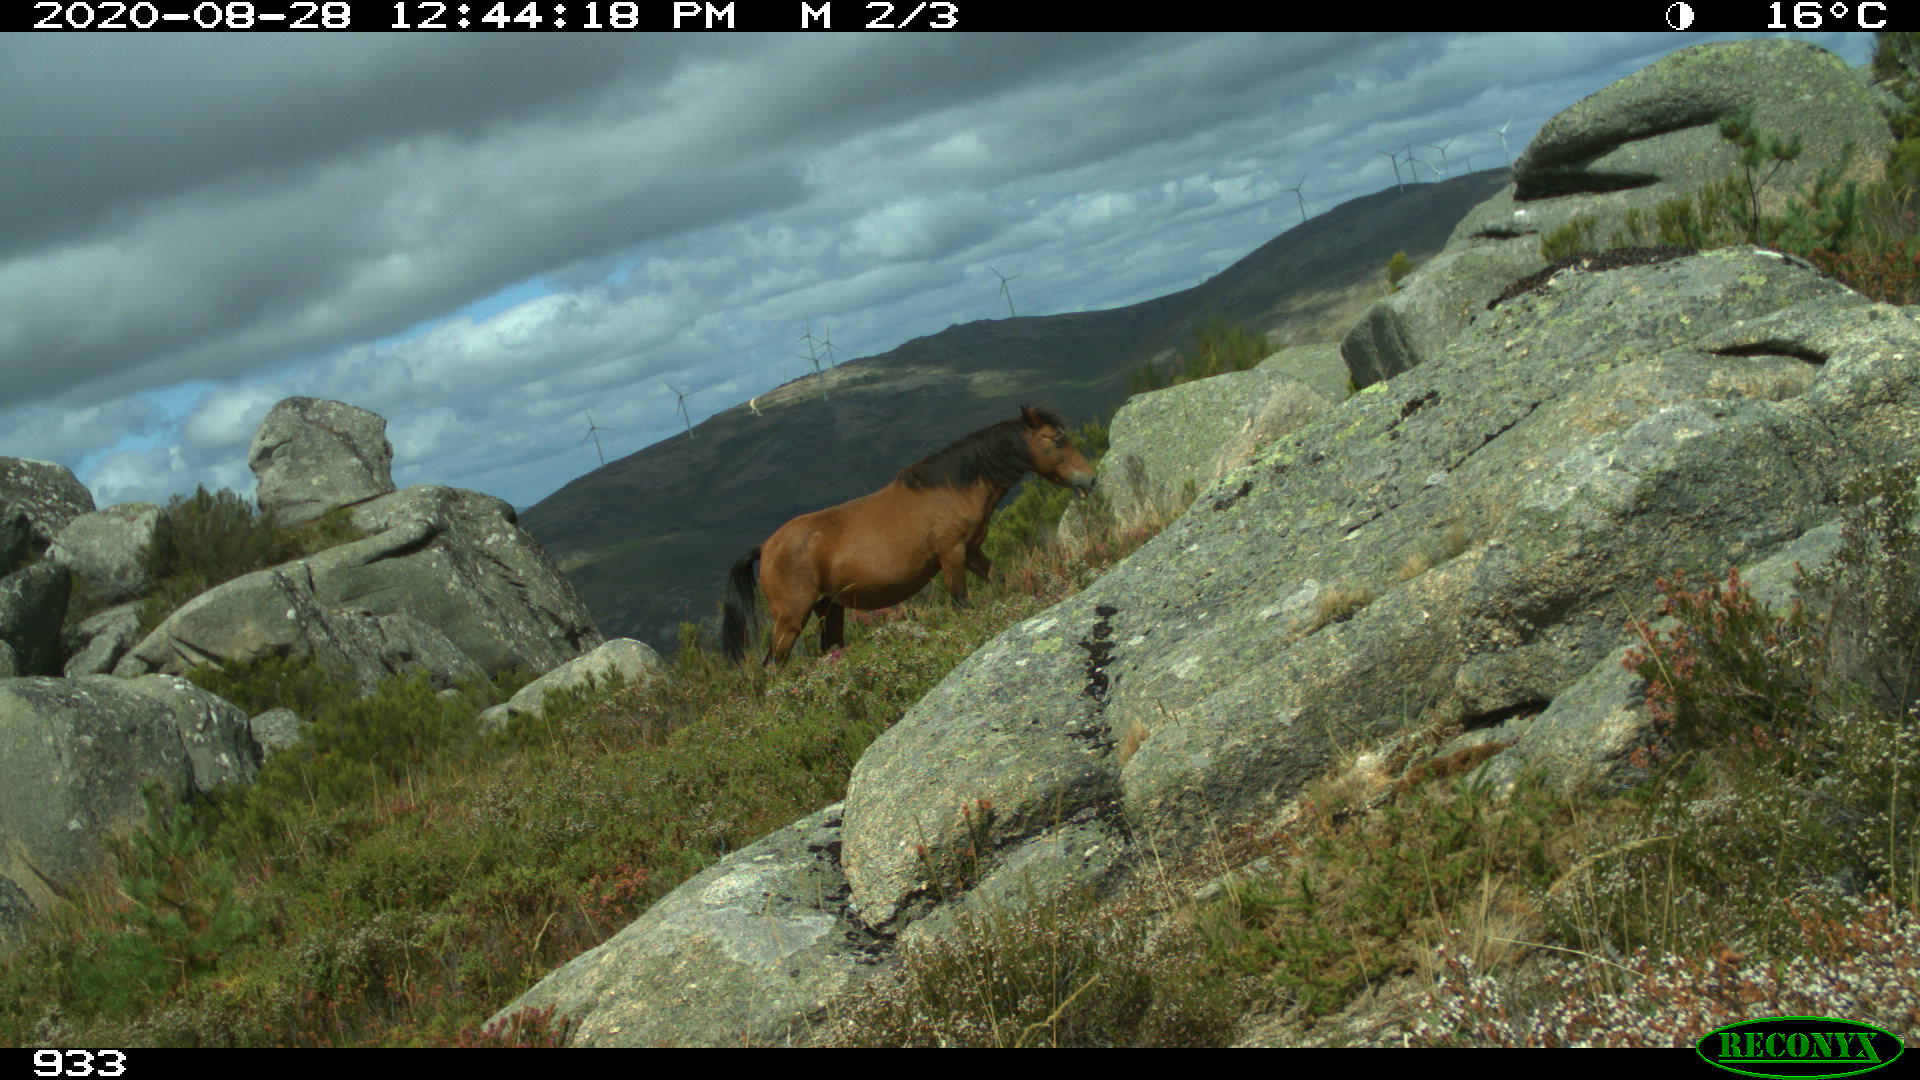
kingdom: Animalia
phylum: Chordata
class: Mammalia
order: Perissodactyla
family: Equidae
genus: Equus
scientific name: Equus caballus
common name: Horse
